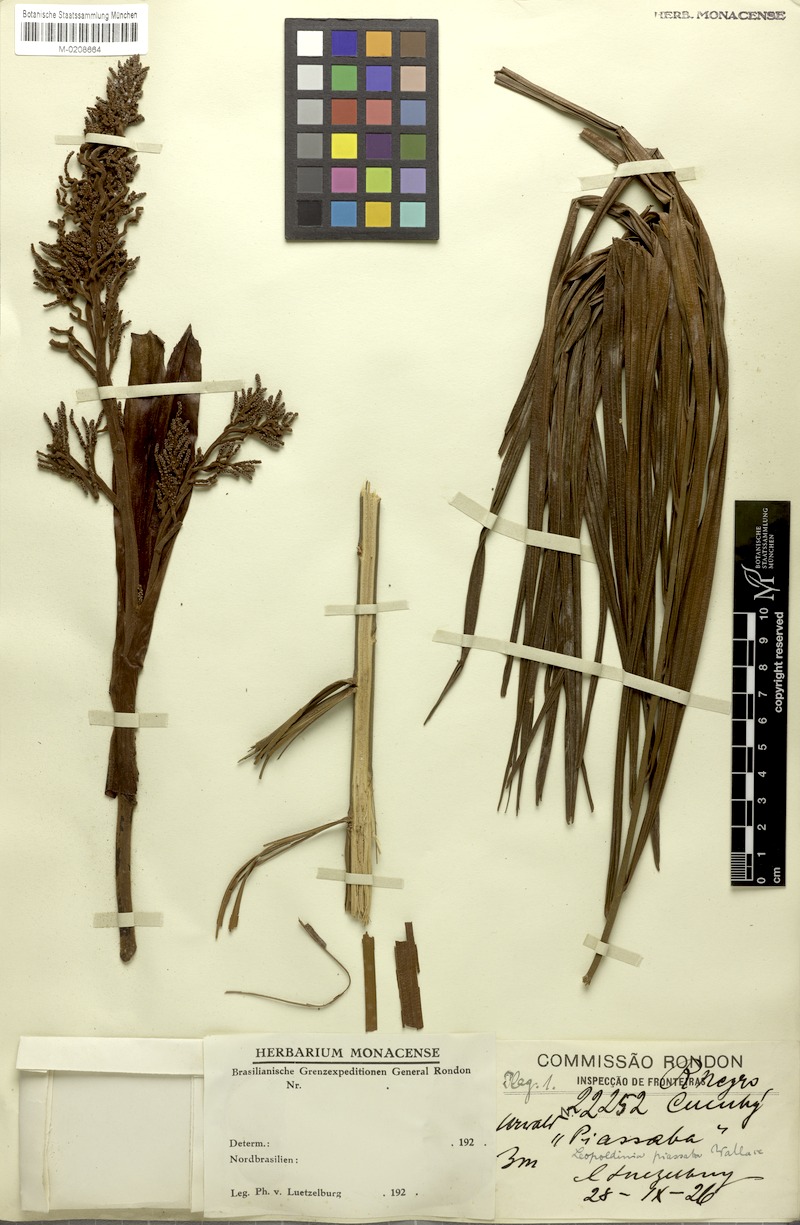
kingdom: Plantae
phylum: Tracheophyta
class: Liliopsida
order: Arecales
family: Arecaceae
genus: Leopoldinia
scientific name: Leopoldinia piassaba
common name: Piassaba
